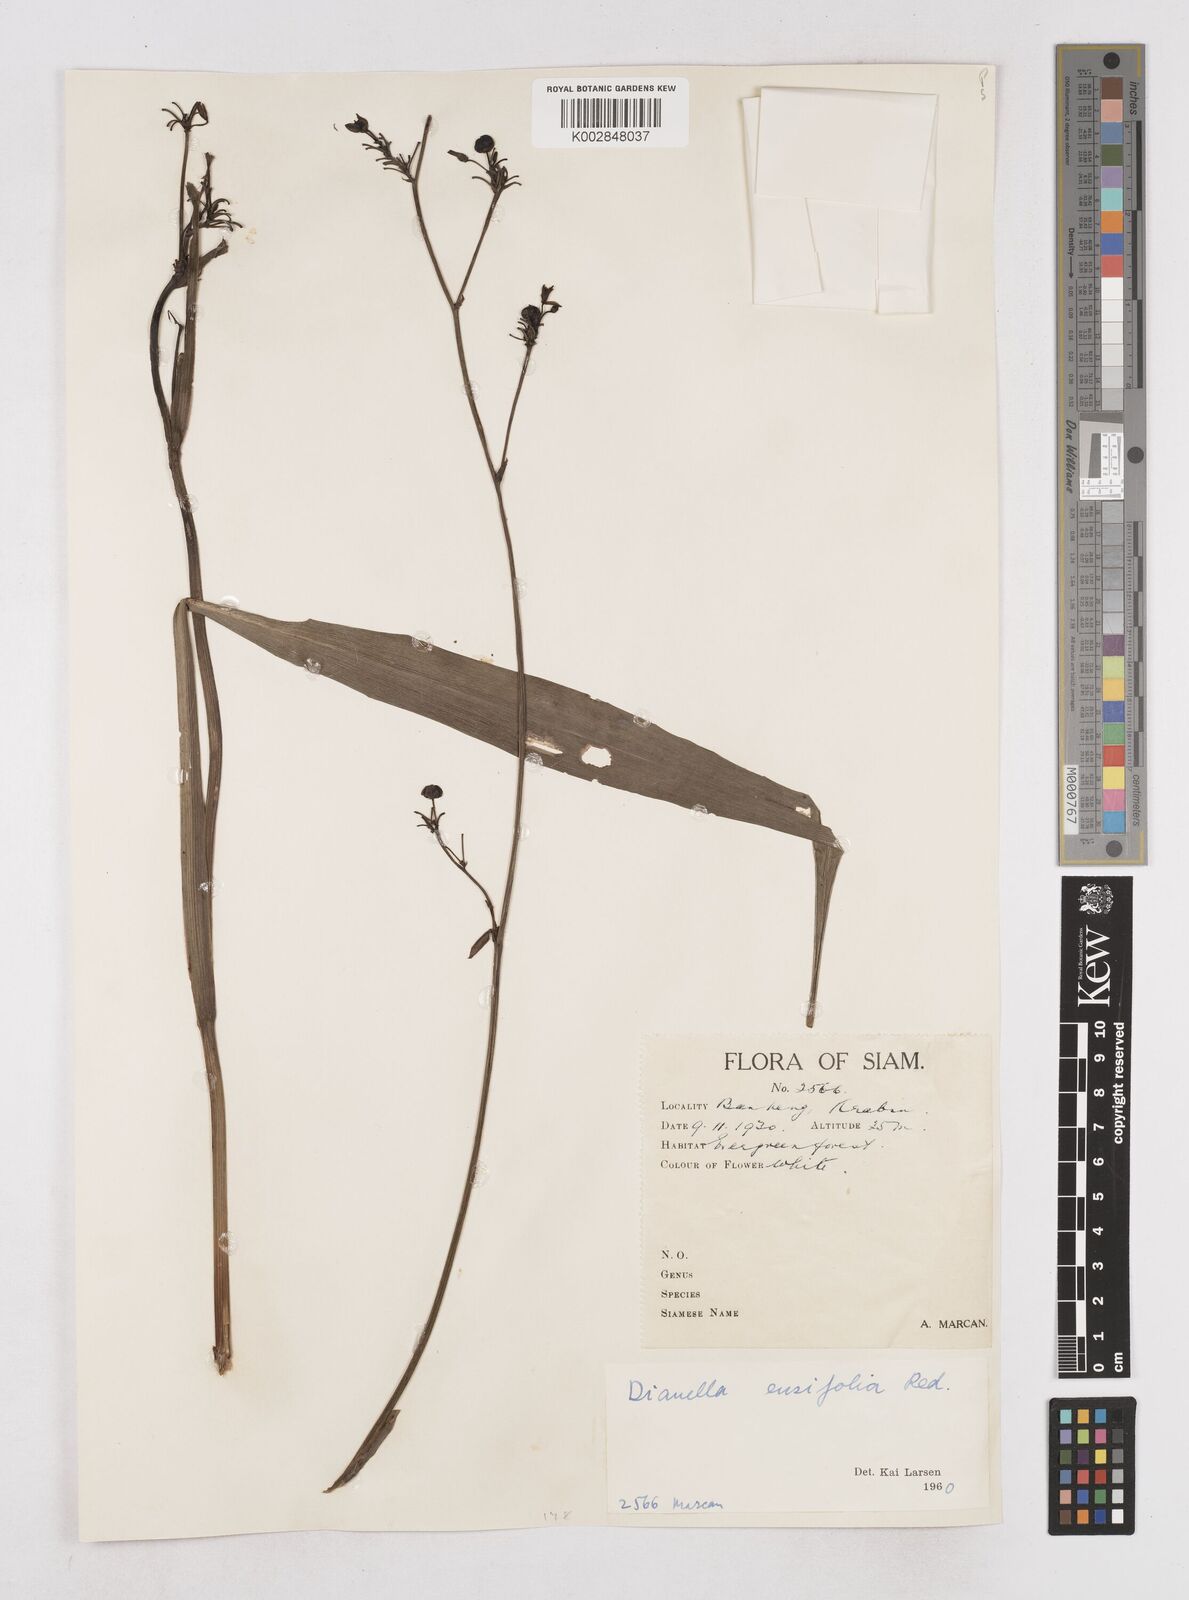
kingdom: Plantae
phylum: Tracheophyta
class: Liliopsida
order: Asparagales
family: Asphodelaceae
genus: Dianella
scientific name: Dianella ensifolia
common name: New zealand lilyplant
